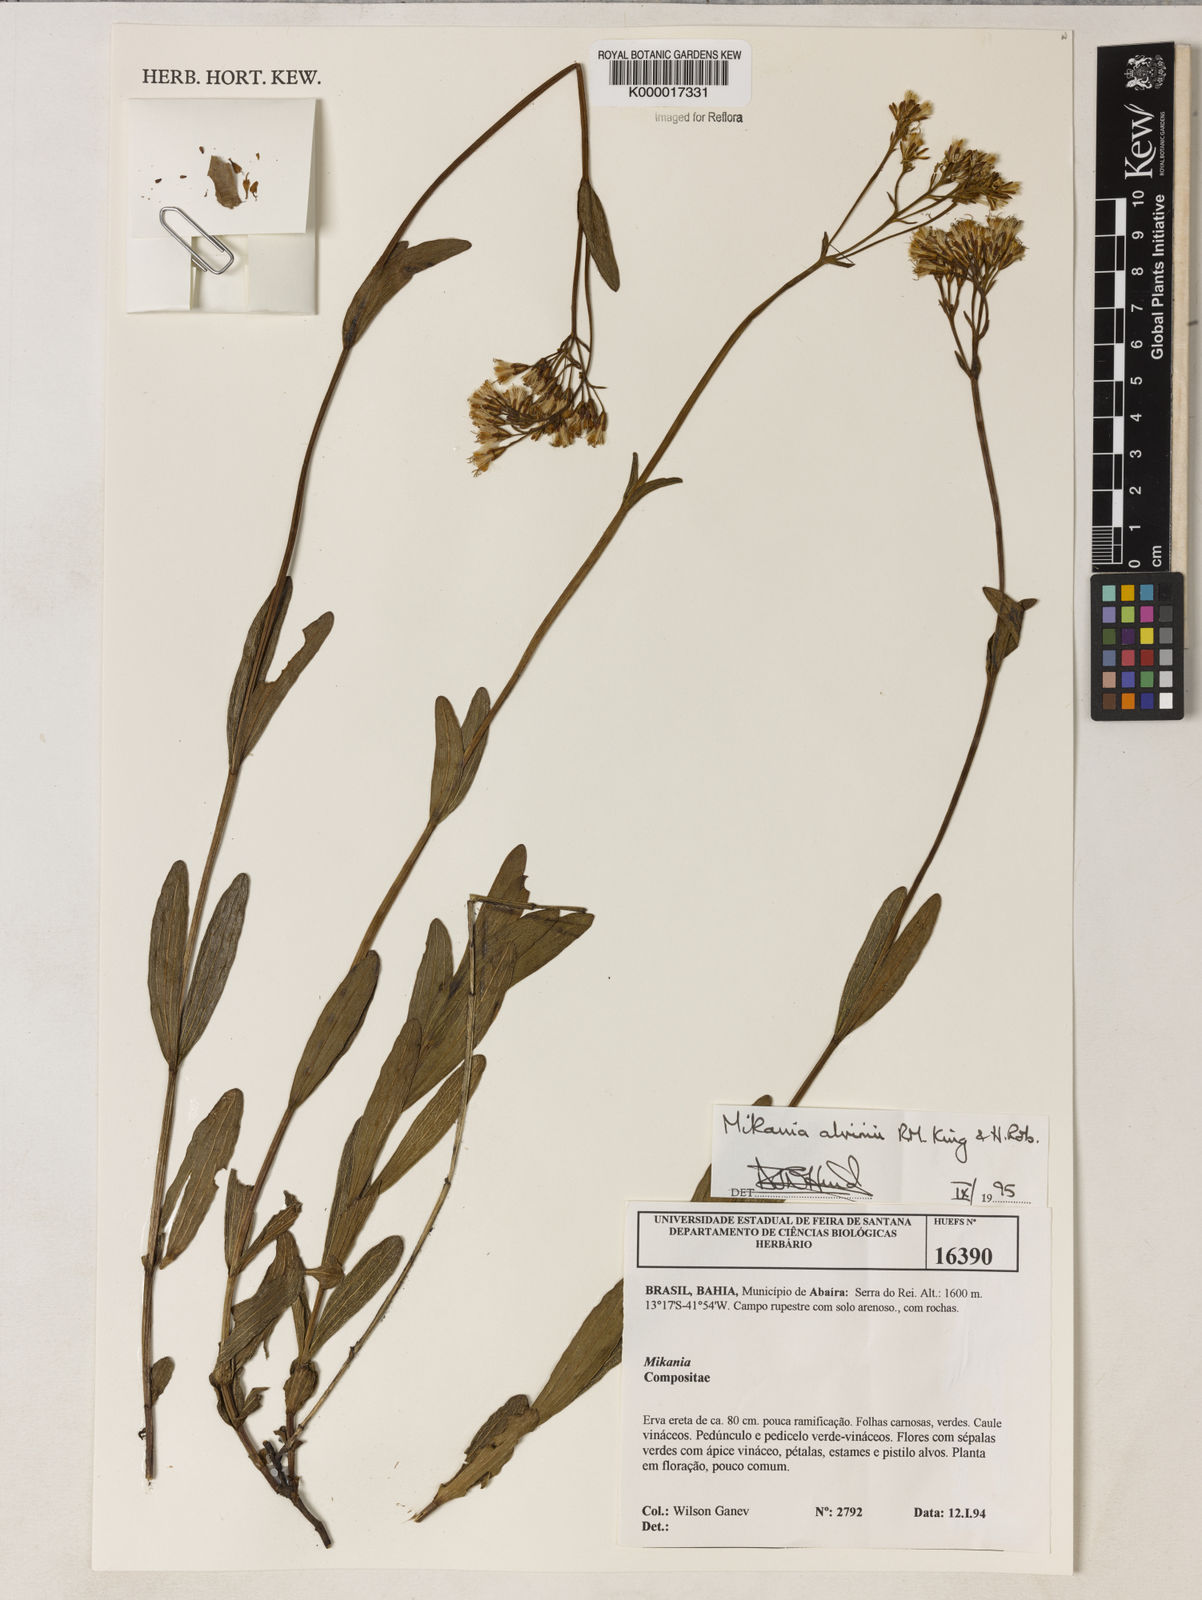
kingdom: Plantae
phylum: Tracheophyta
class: Magnoliopsida
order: Asterales
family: Asteraceae
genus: Mikania
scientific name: Mikania alvimii
